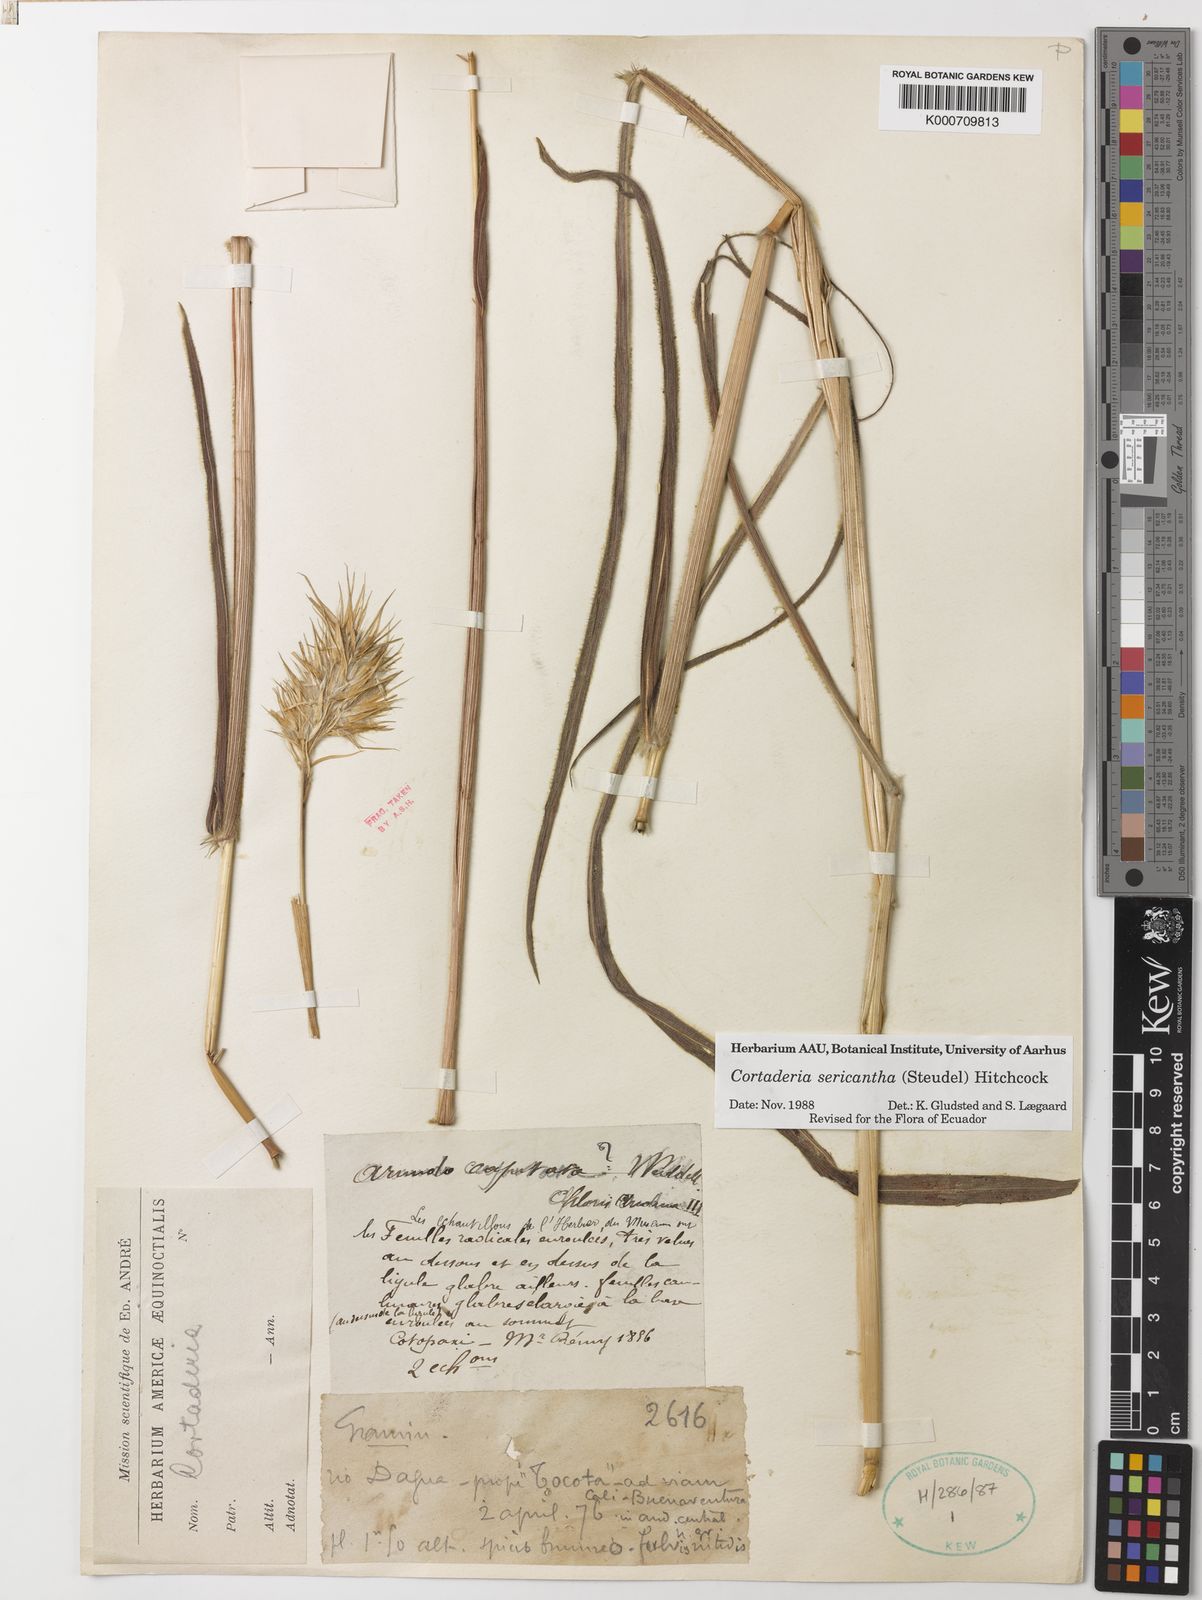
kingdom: Plantae
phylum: Tracheophyta
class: Liliopsida
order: Poales
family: Poaceae
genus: Cortaderia
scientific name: Cortaderia sericantha
